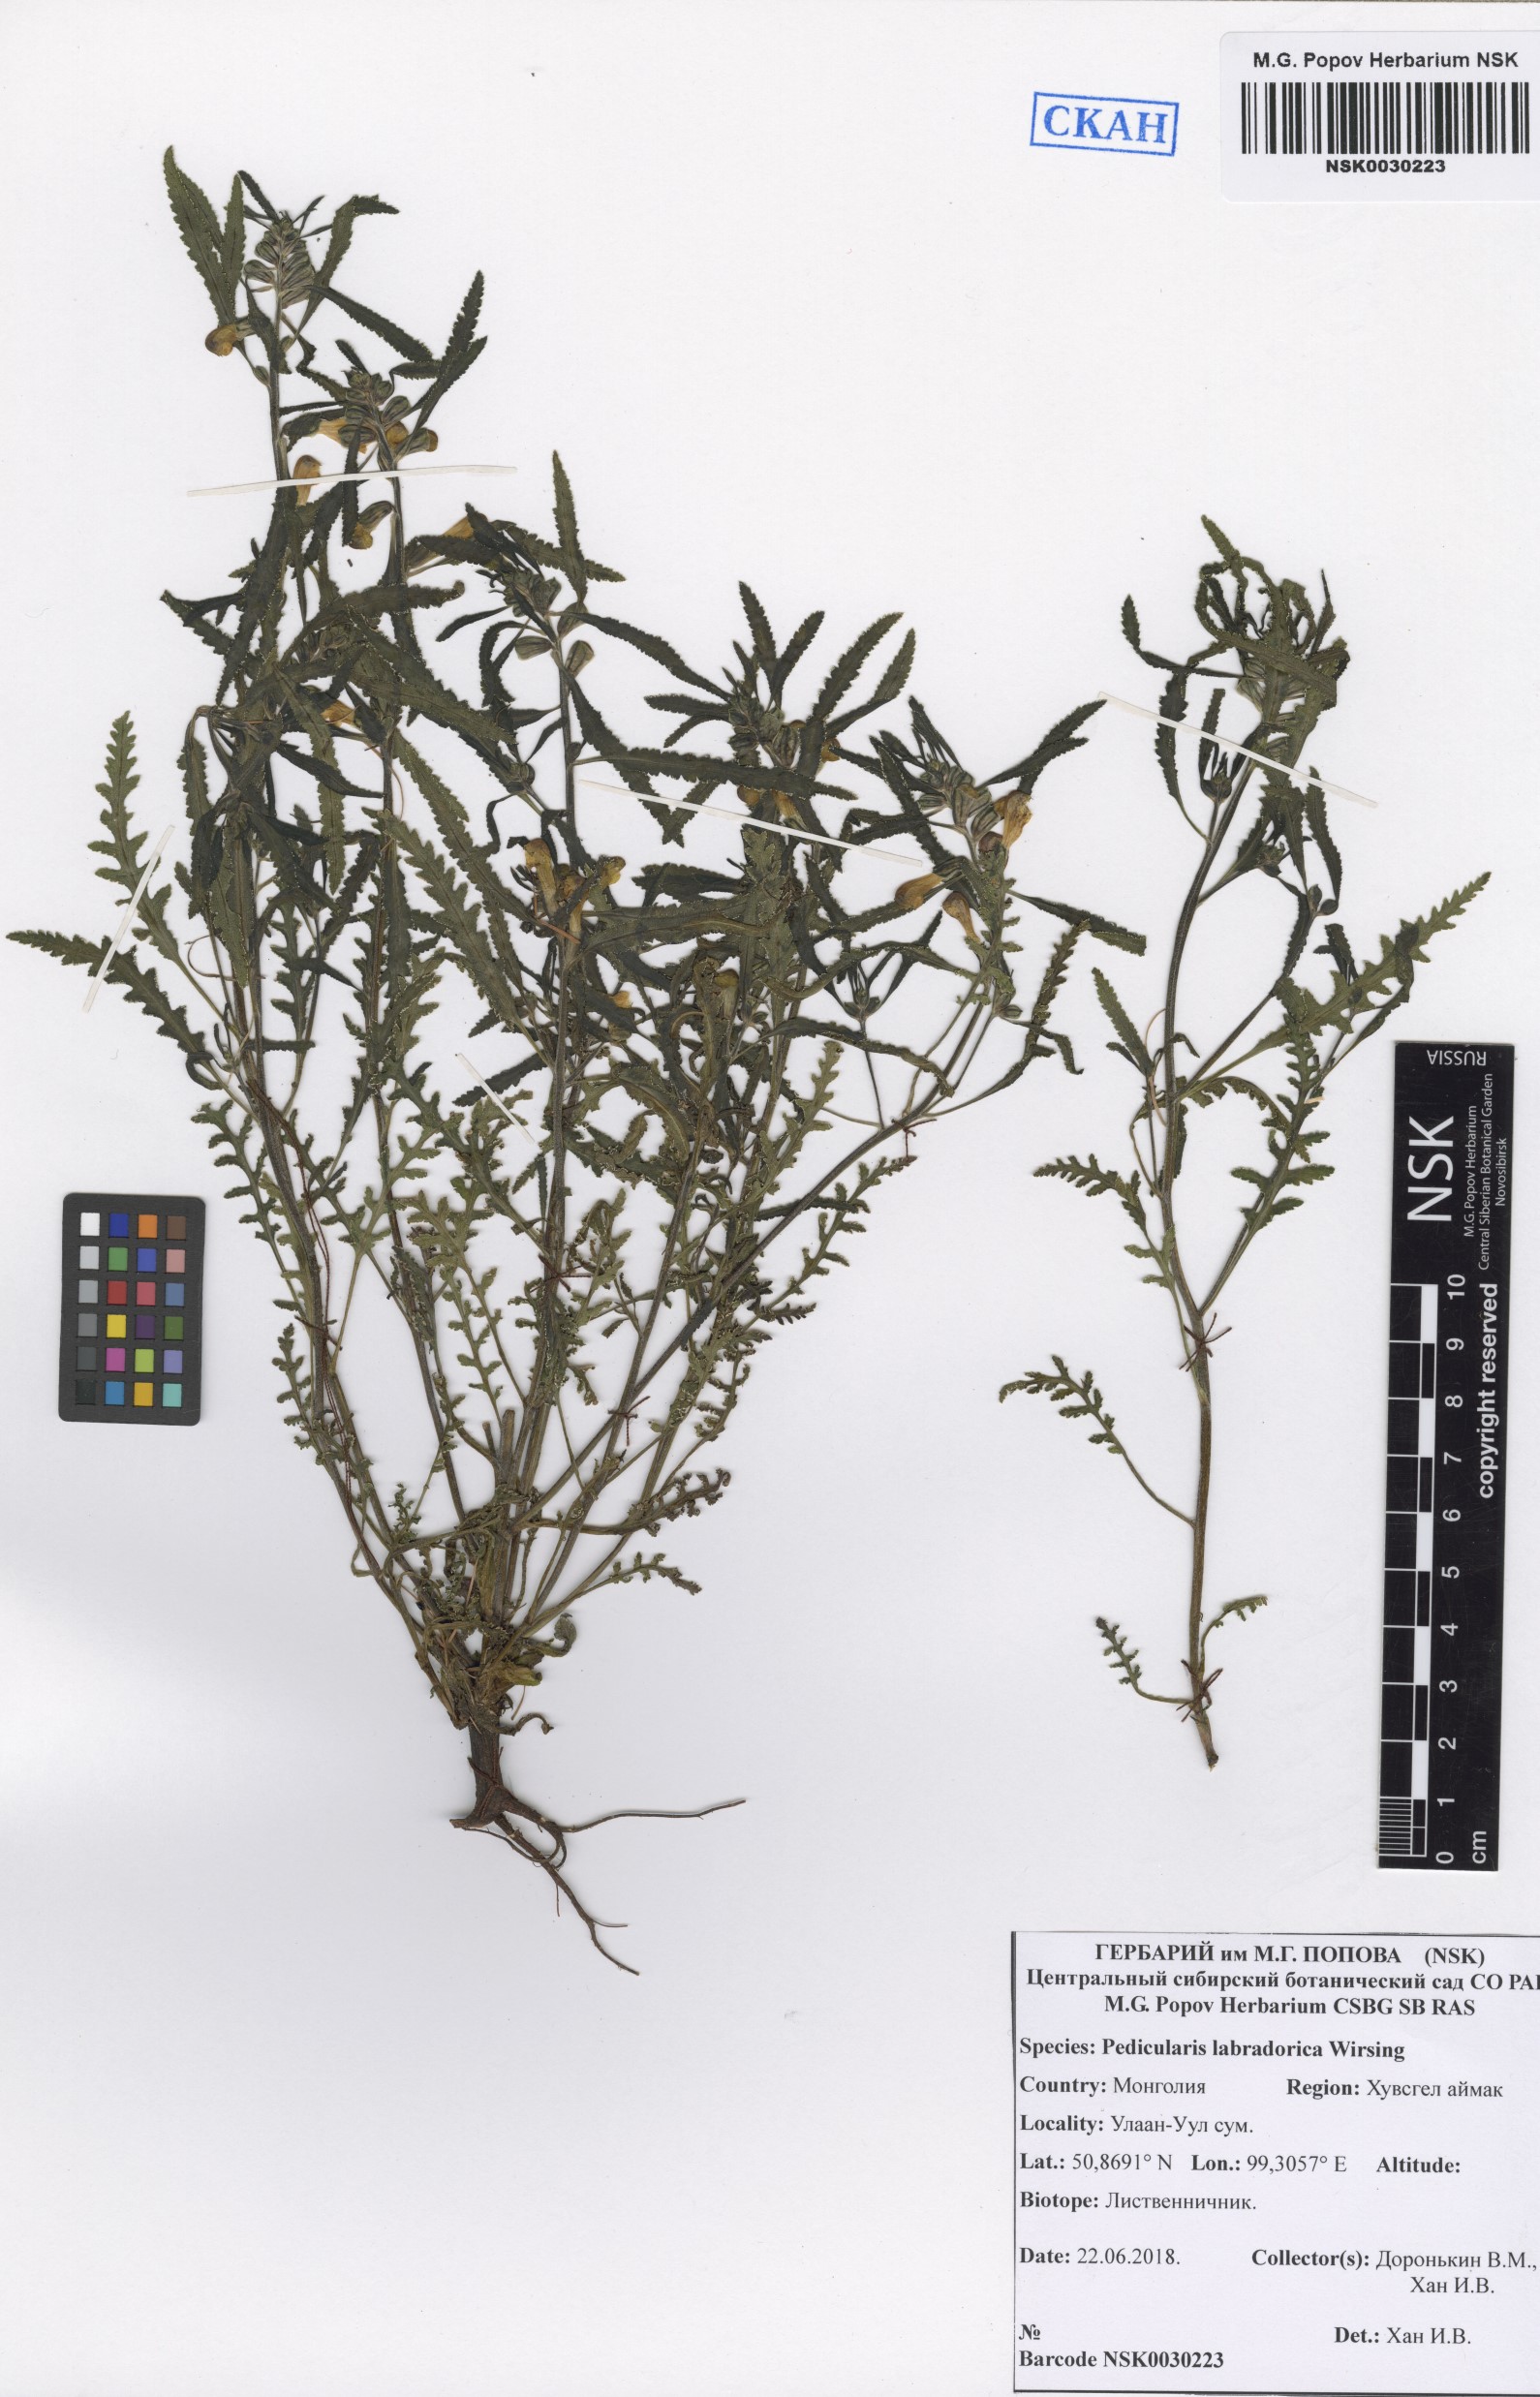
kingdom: Plantae
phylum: Tracheophyta
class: Magnoliopsida
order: Lamiales
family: Orobanchaceae
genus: Pedicularis
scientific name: Pedicularis labradorica
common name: Labrador lousewort
